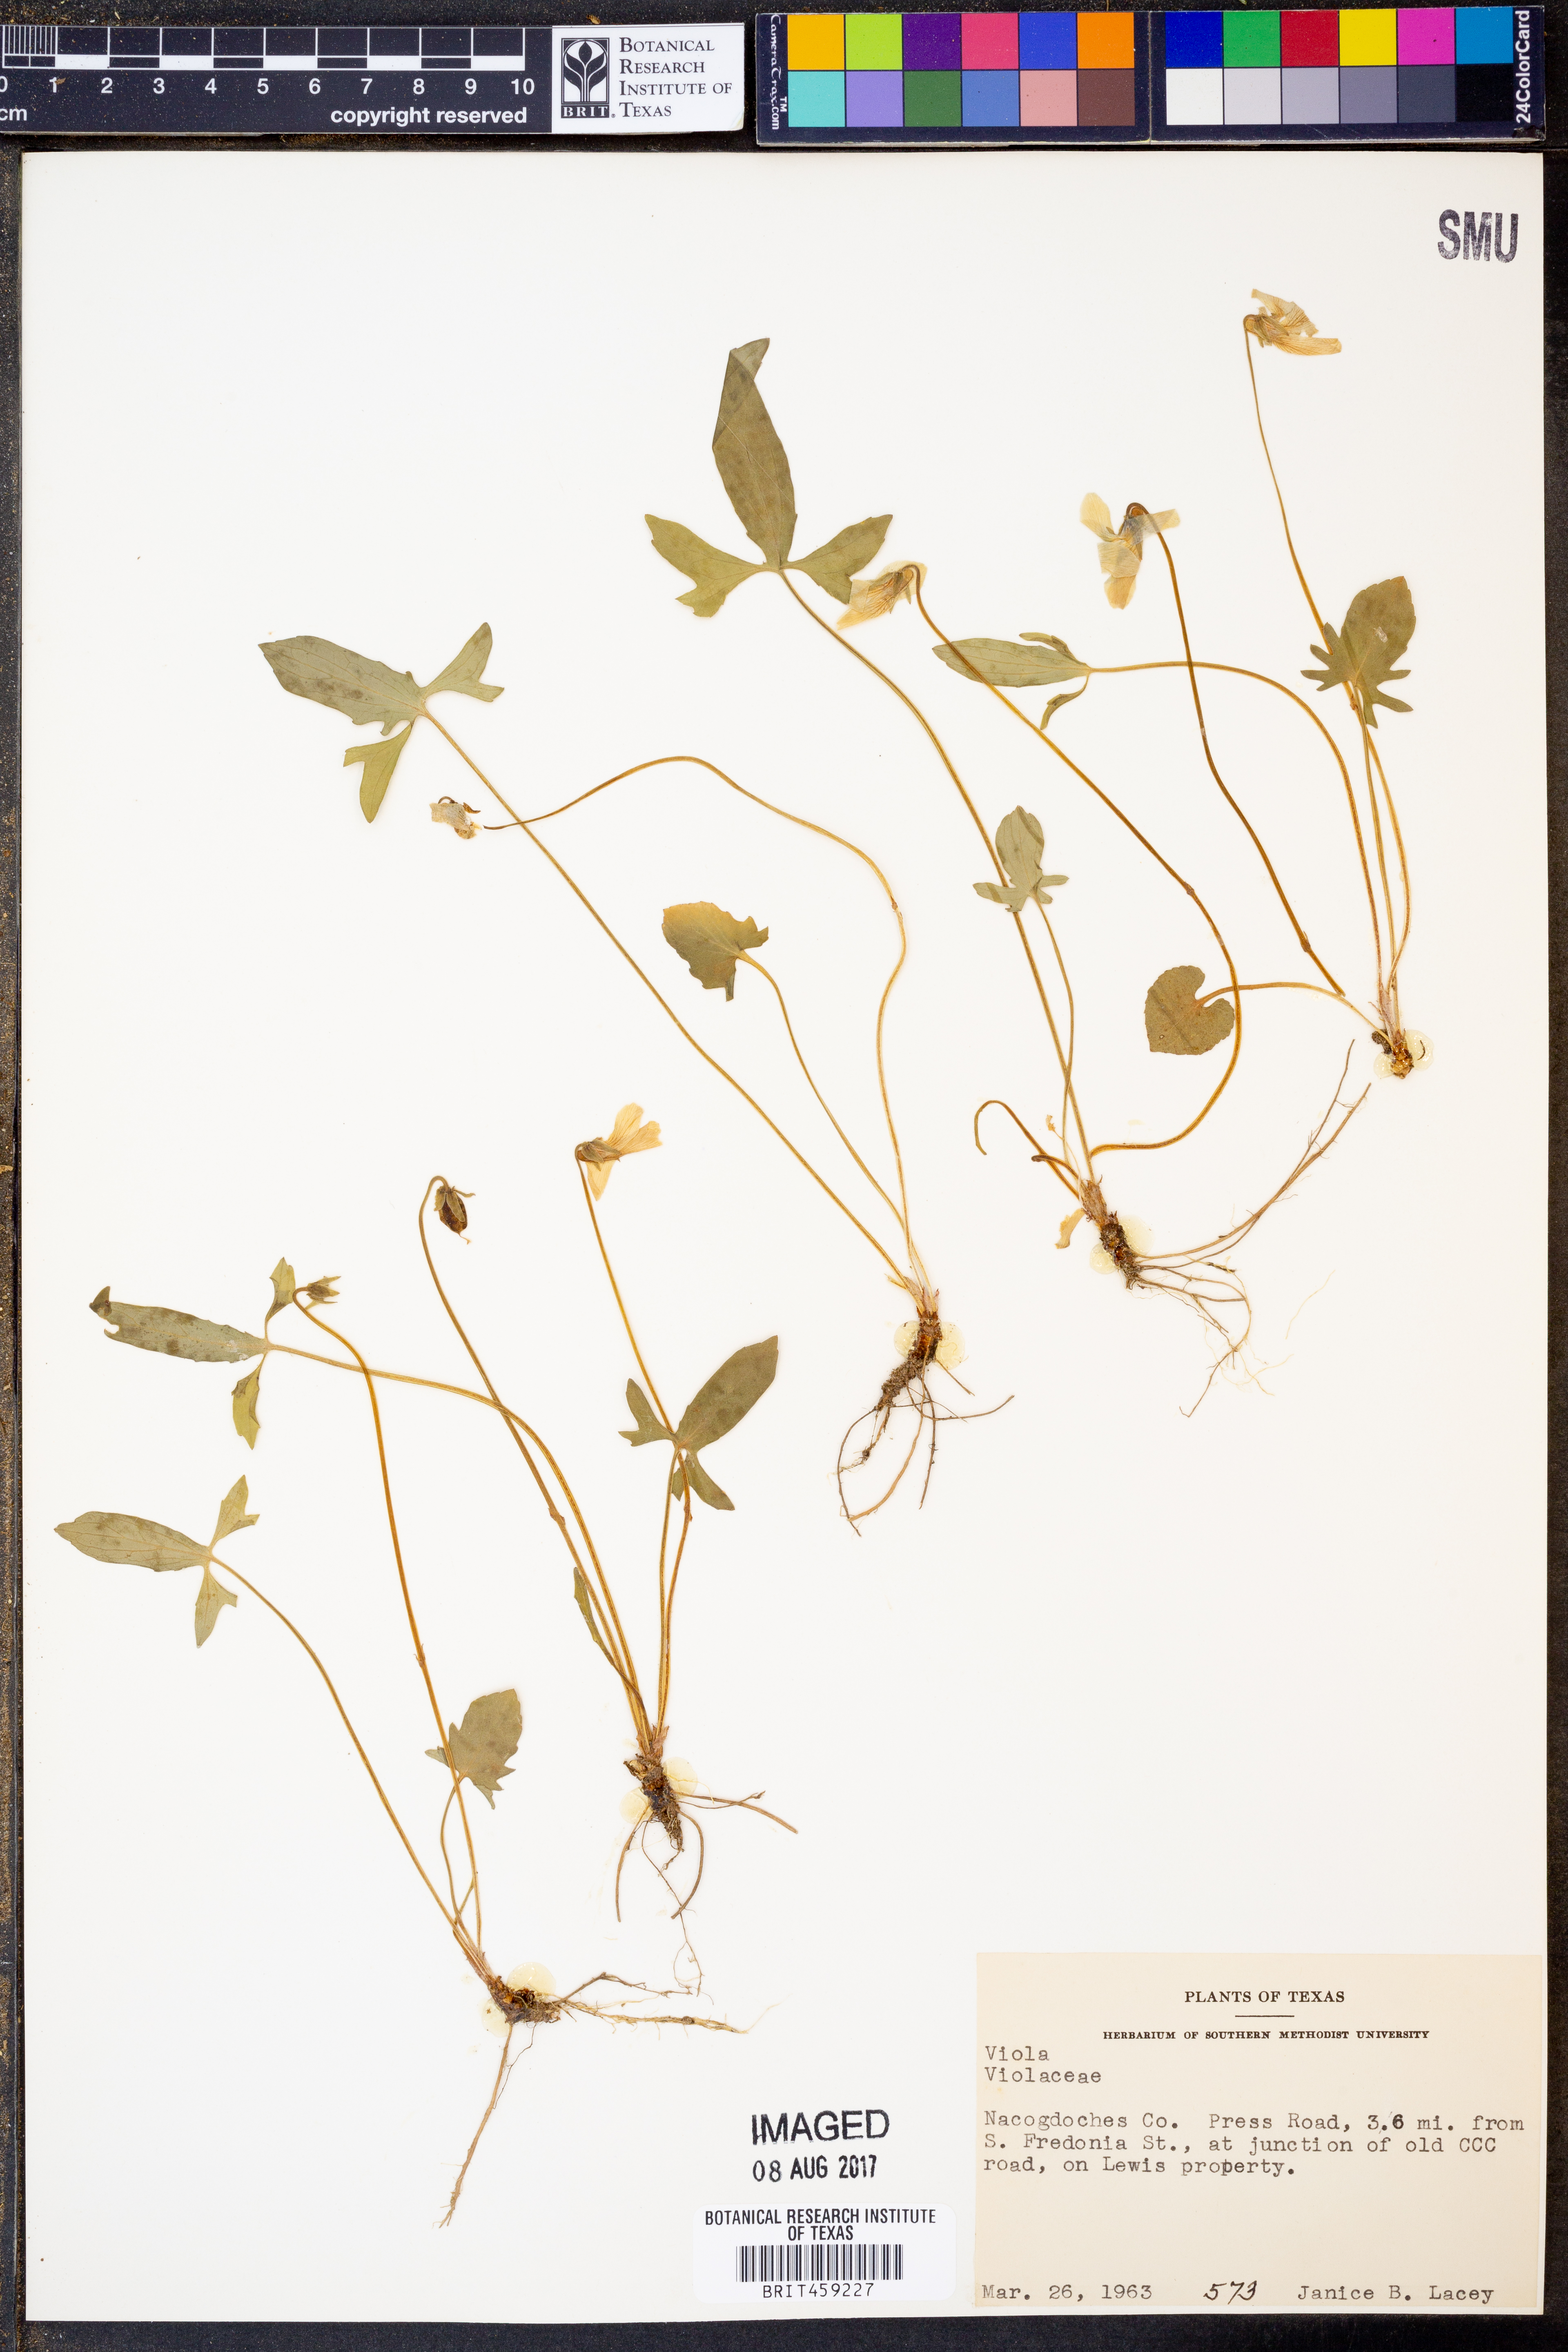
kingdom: Plantae
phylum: Tracheophyta
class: Magnoliopsida
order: Malpighiales
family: Violaceae
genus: Viola
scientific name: Viola
